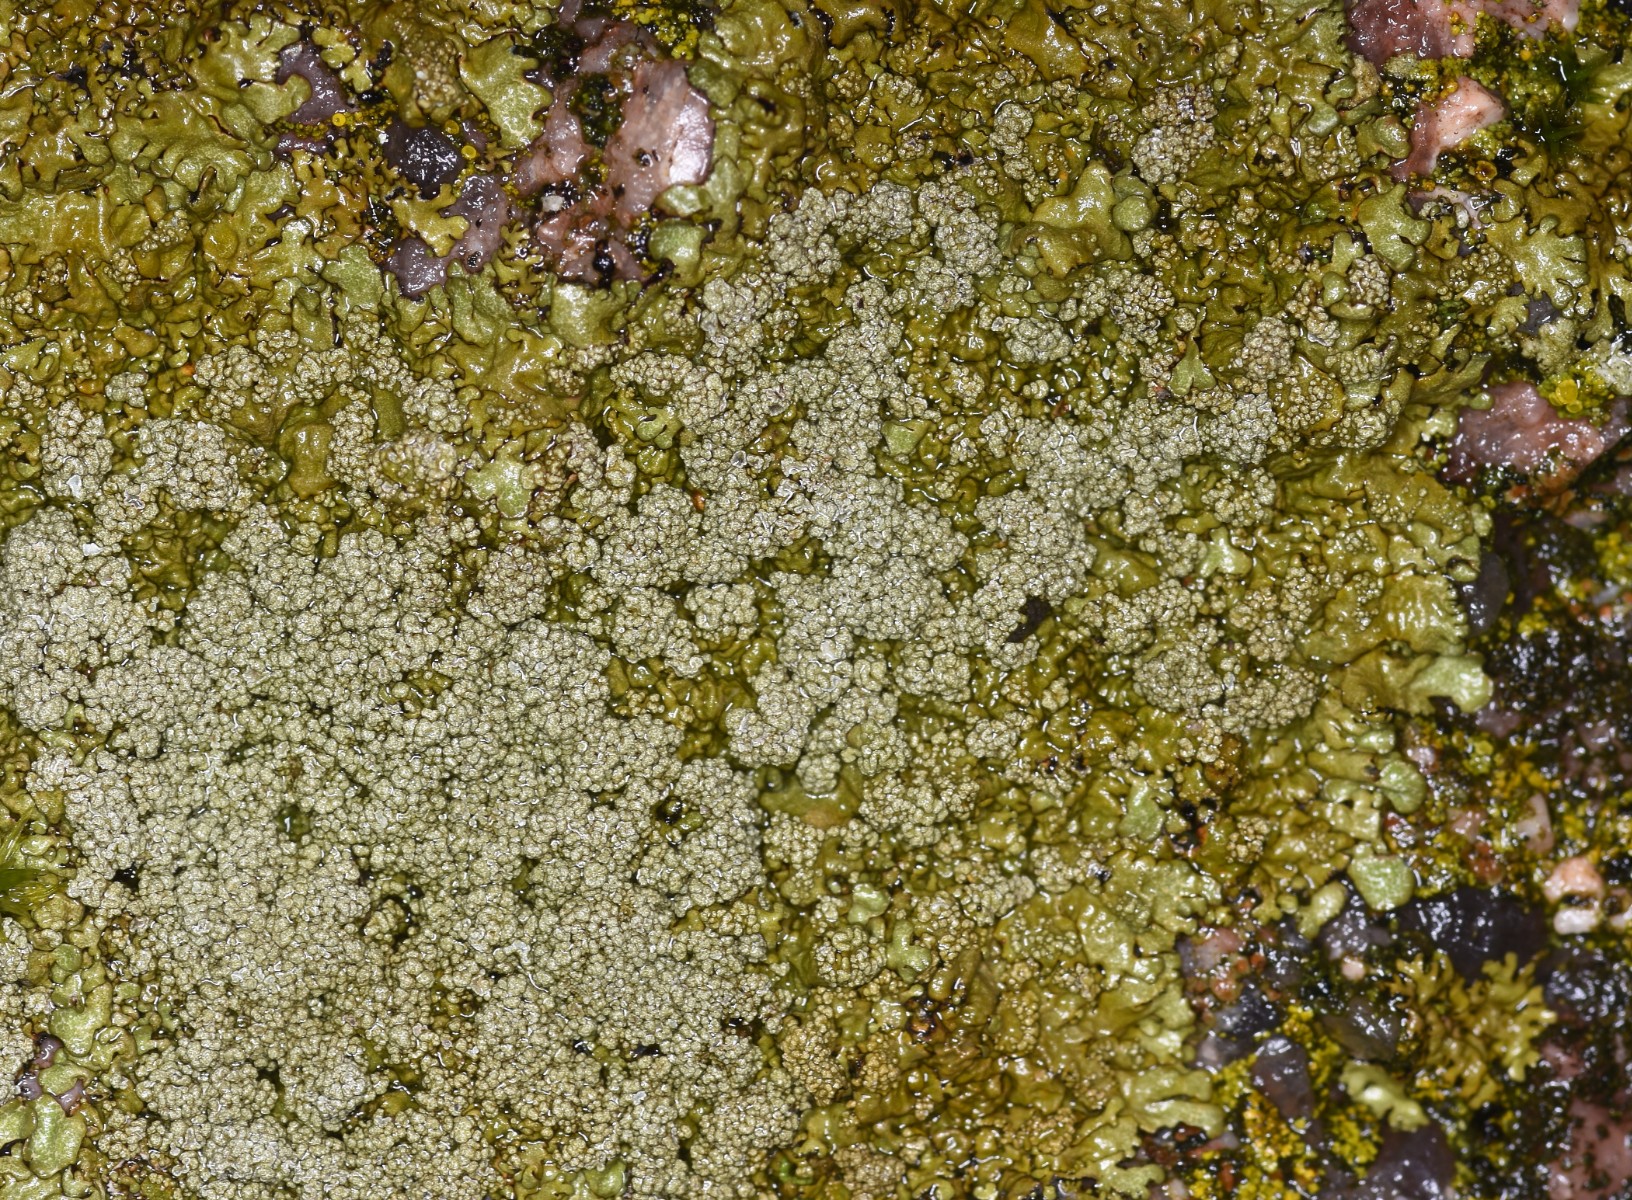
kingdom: Fungi
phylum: Ascomycota
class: Lecanoromycetes
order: Lecanorales
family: Parmeliaceae
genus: Xanthoparmelia
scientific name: Xanthoparmelia loxodes
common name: knudret skållav
